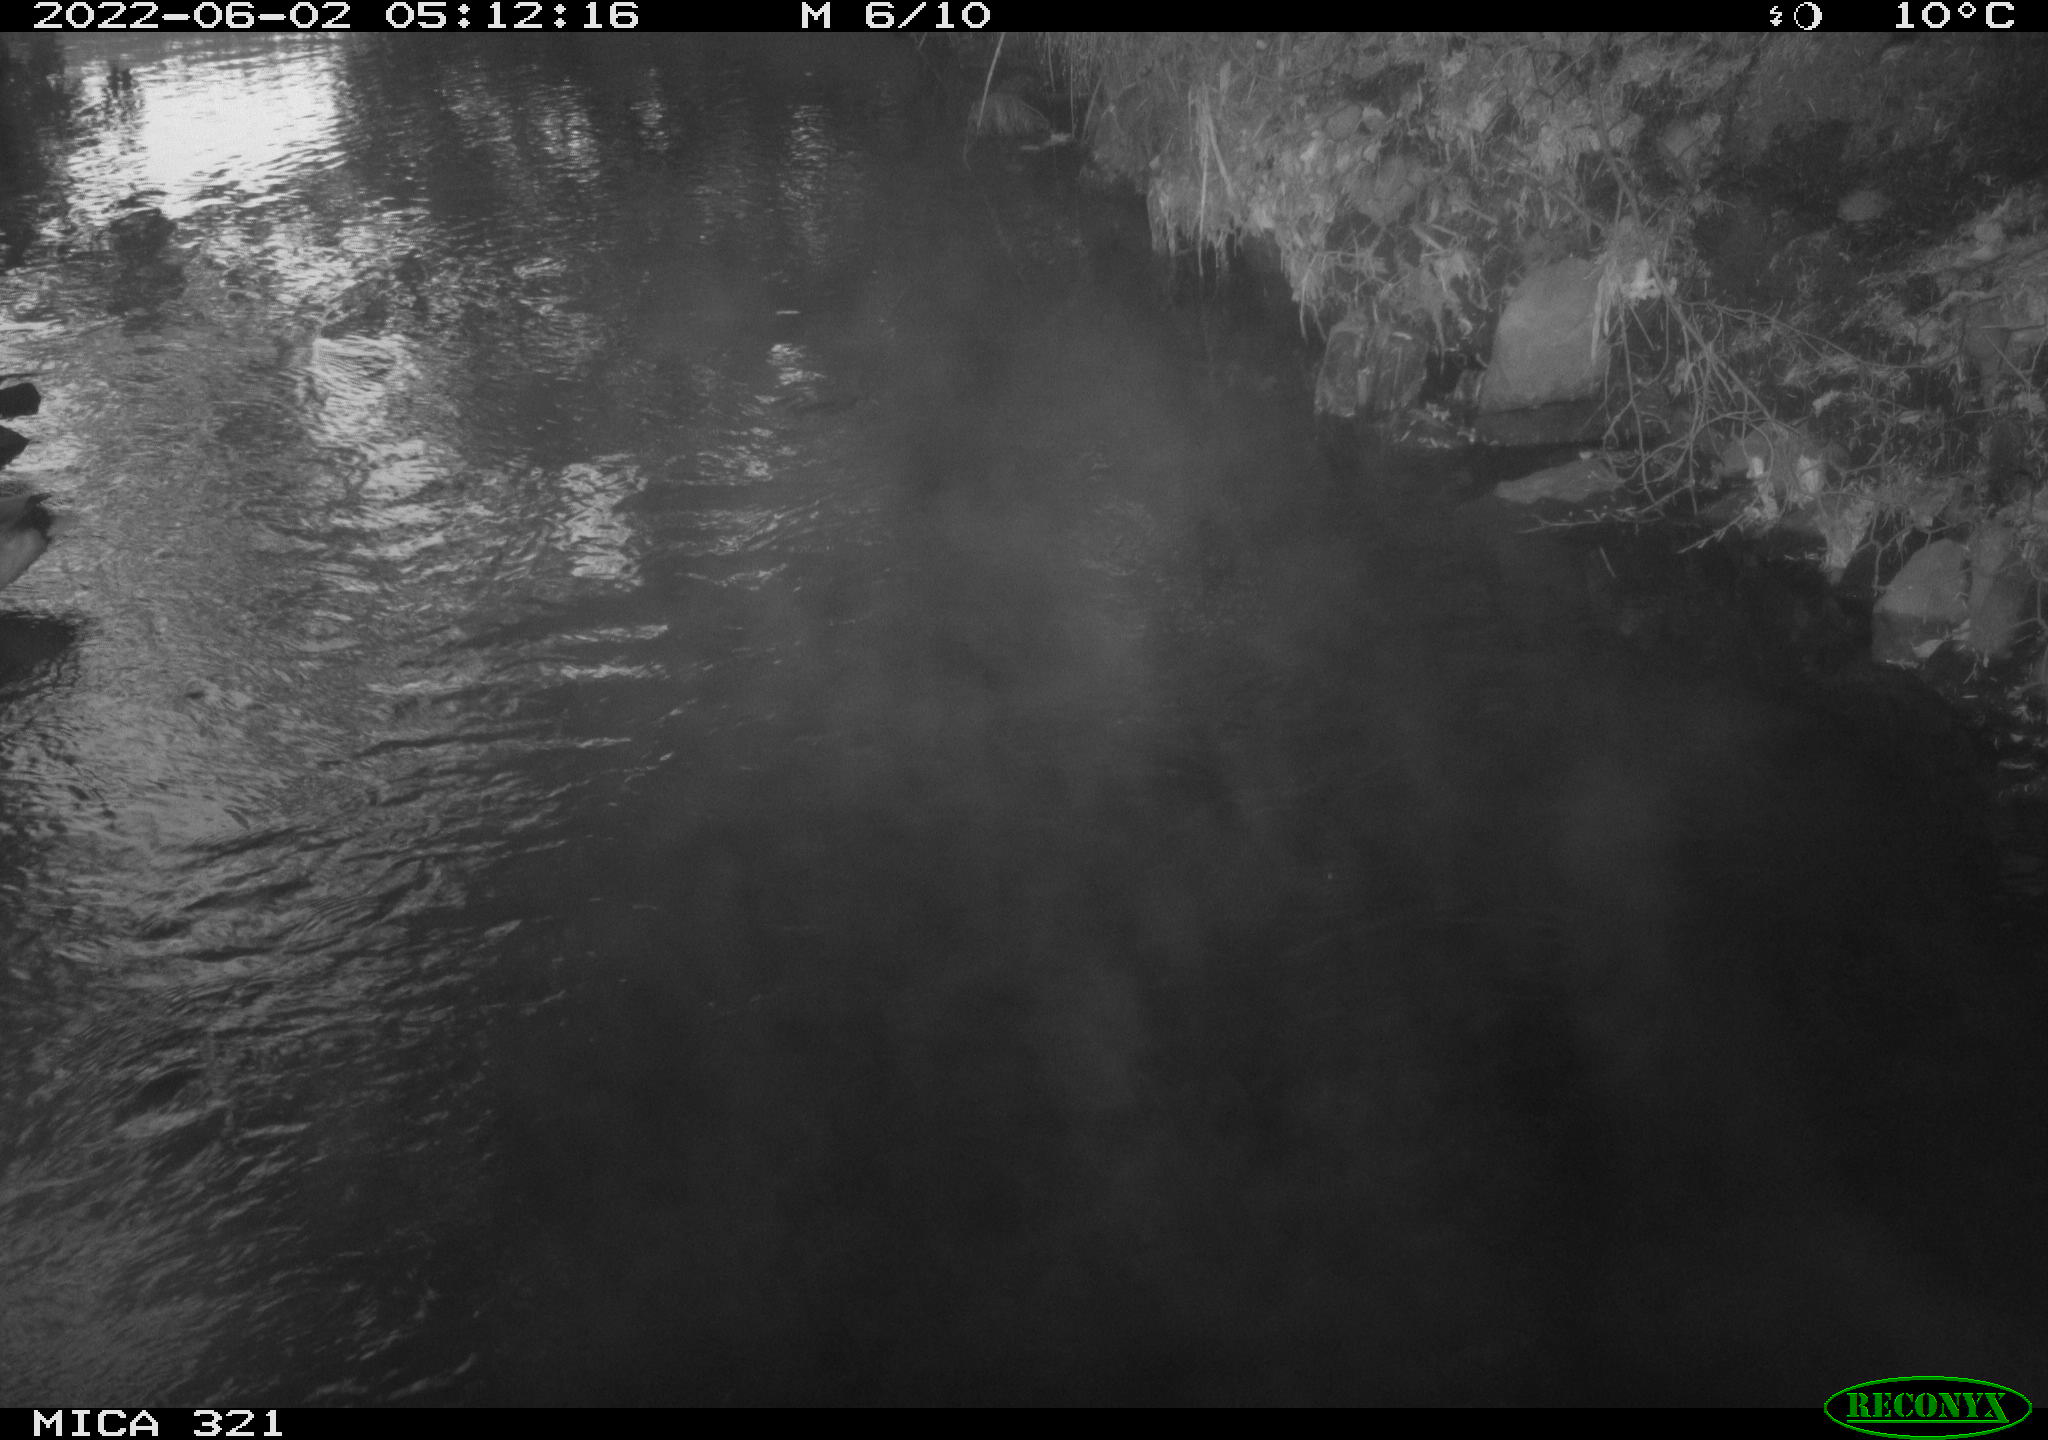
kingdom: Animalia
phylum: Chordata
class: Aves
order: Anseriformes
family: Anatidae
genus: Anas
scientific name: Anas platyrhynchos
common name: Mallard
